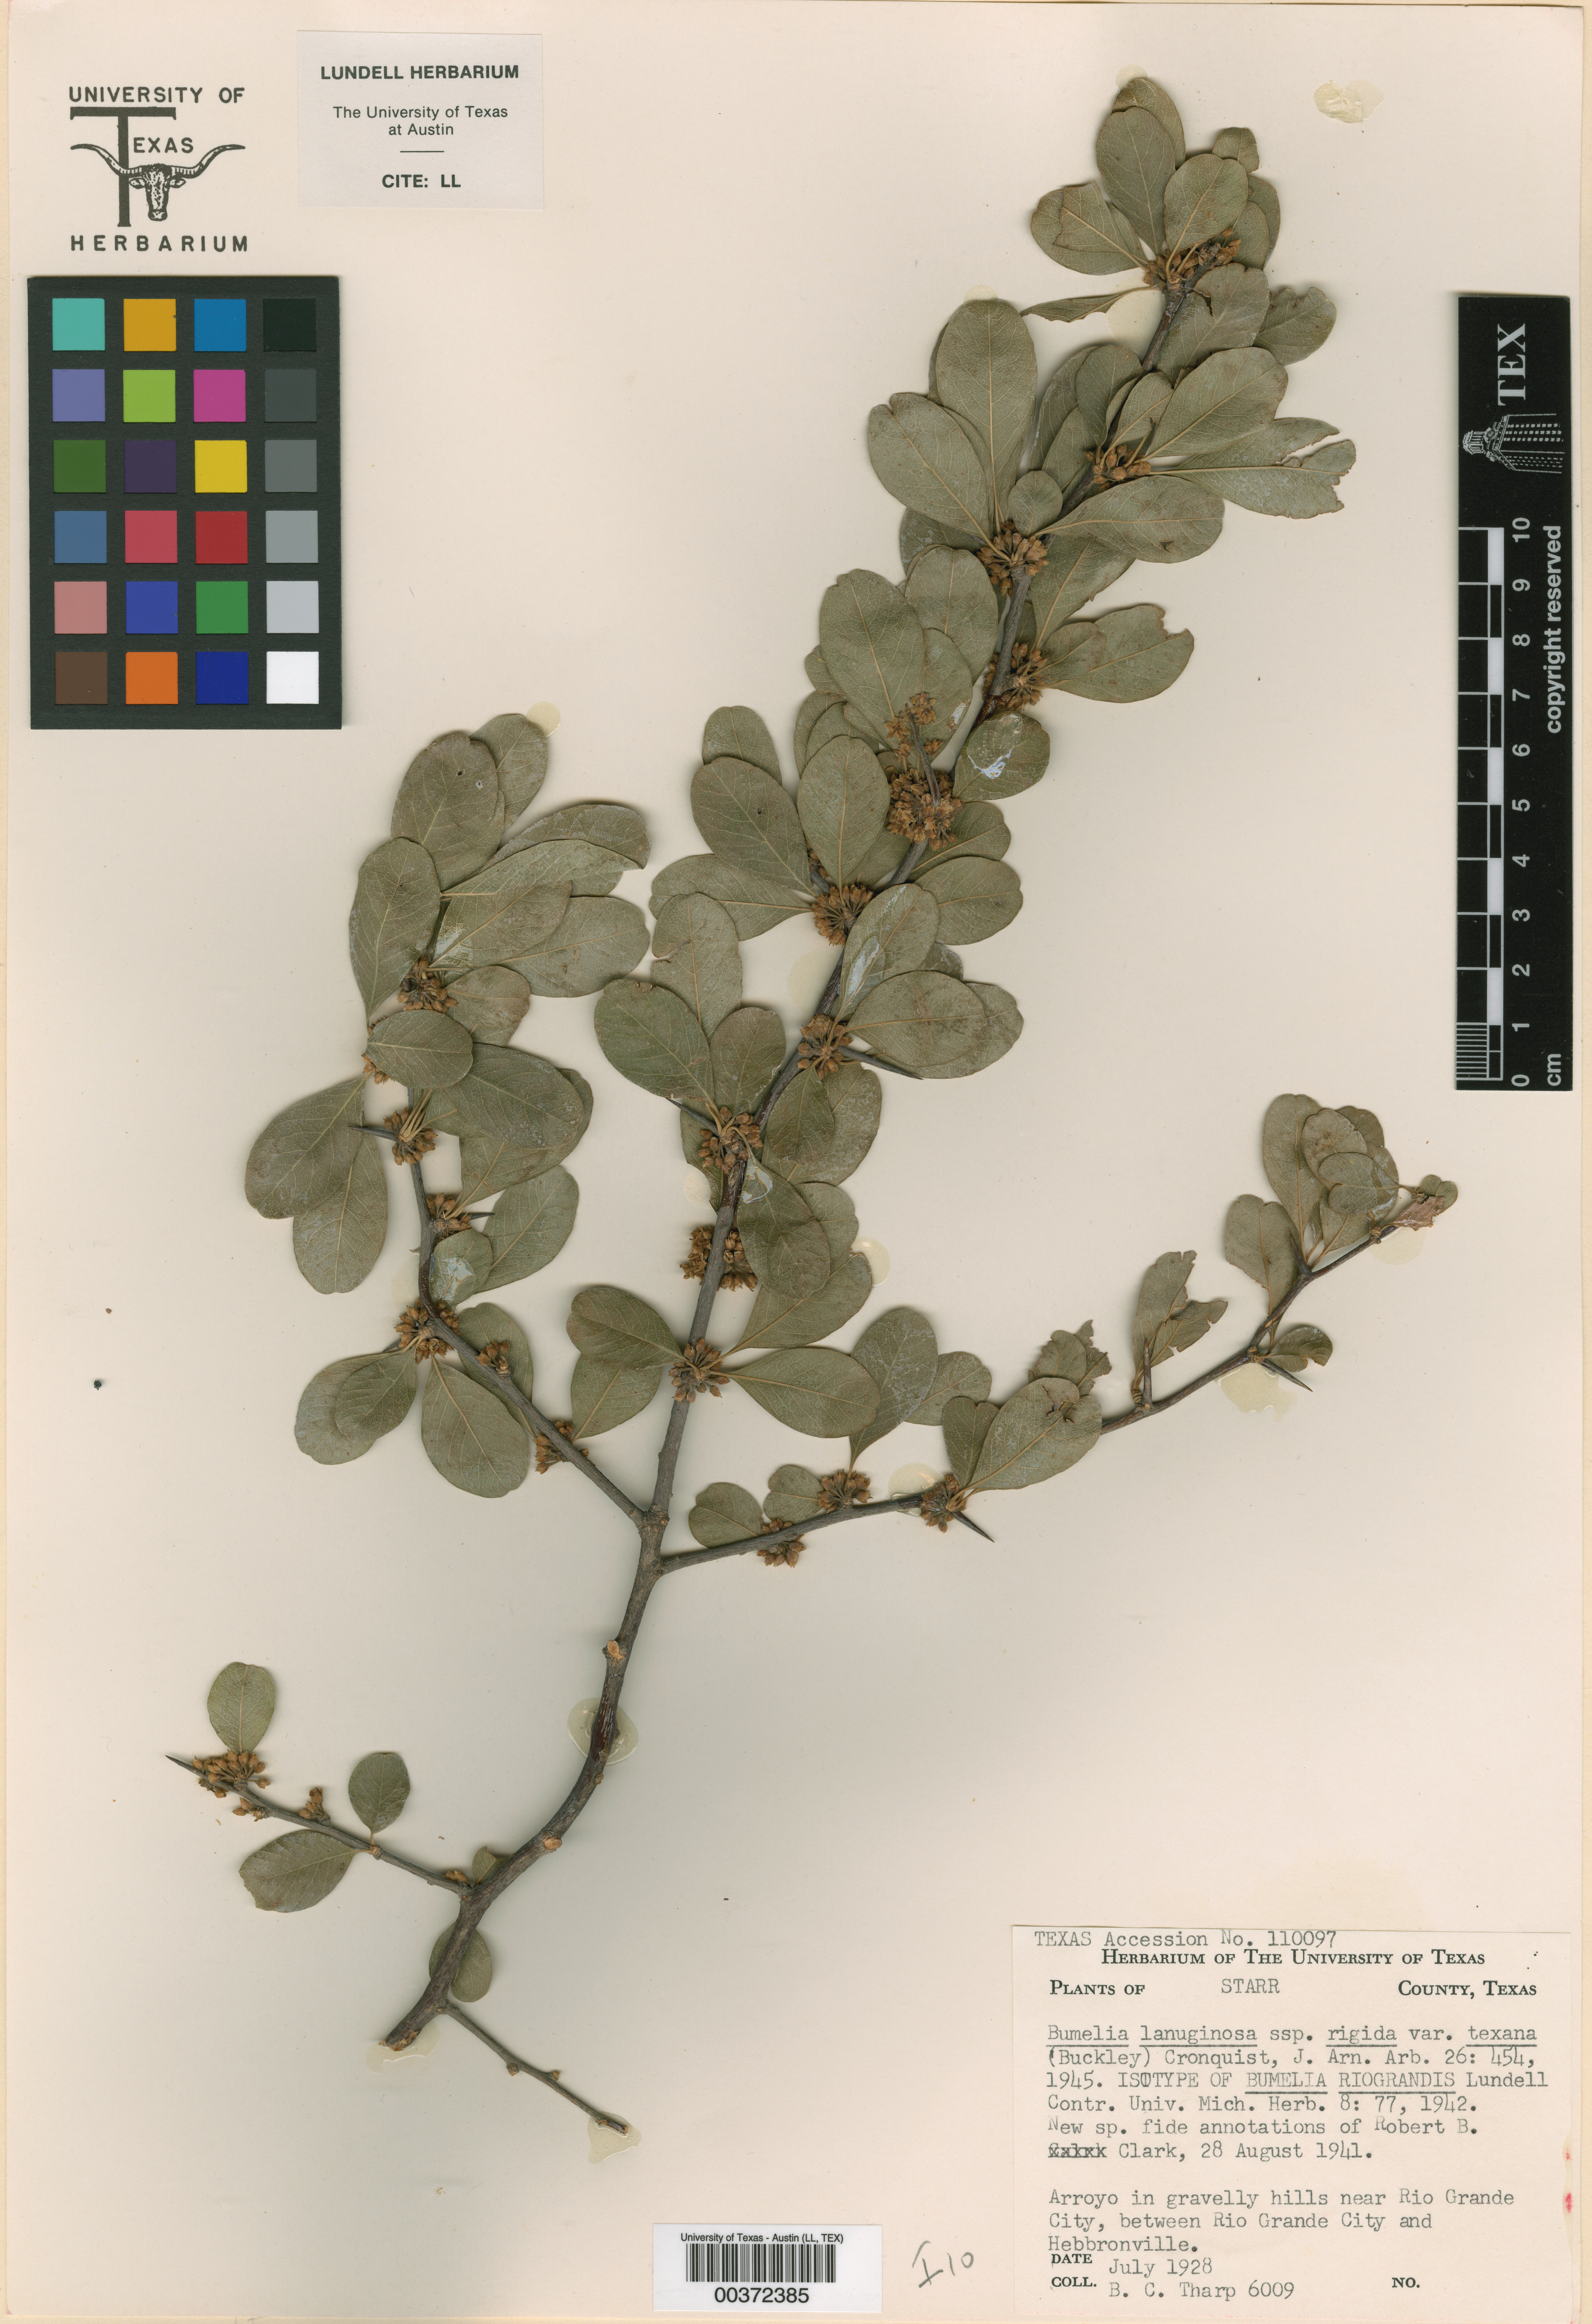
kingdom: Plantae
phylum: Tracheophyta
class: Magnoliopsida
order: Ericales
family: Sapotaceae
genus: Sideroxylon
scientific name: Sideroxylon lanuginosum
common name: Chittamwood
